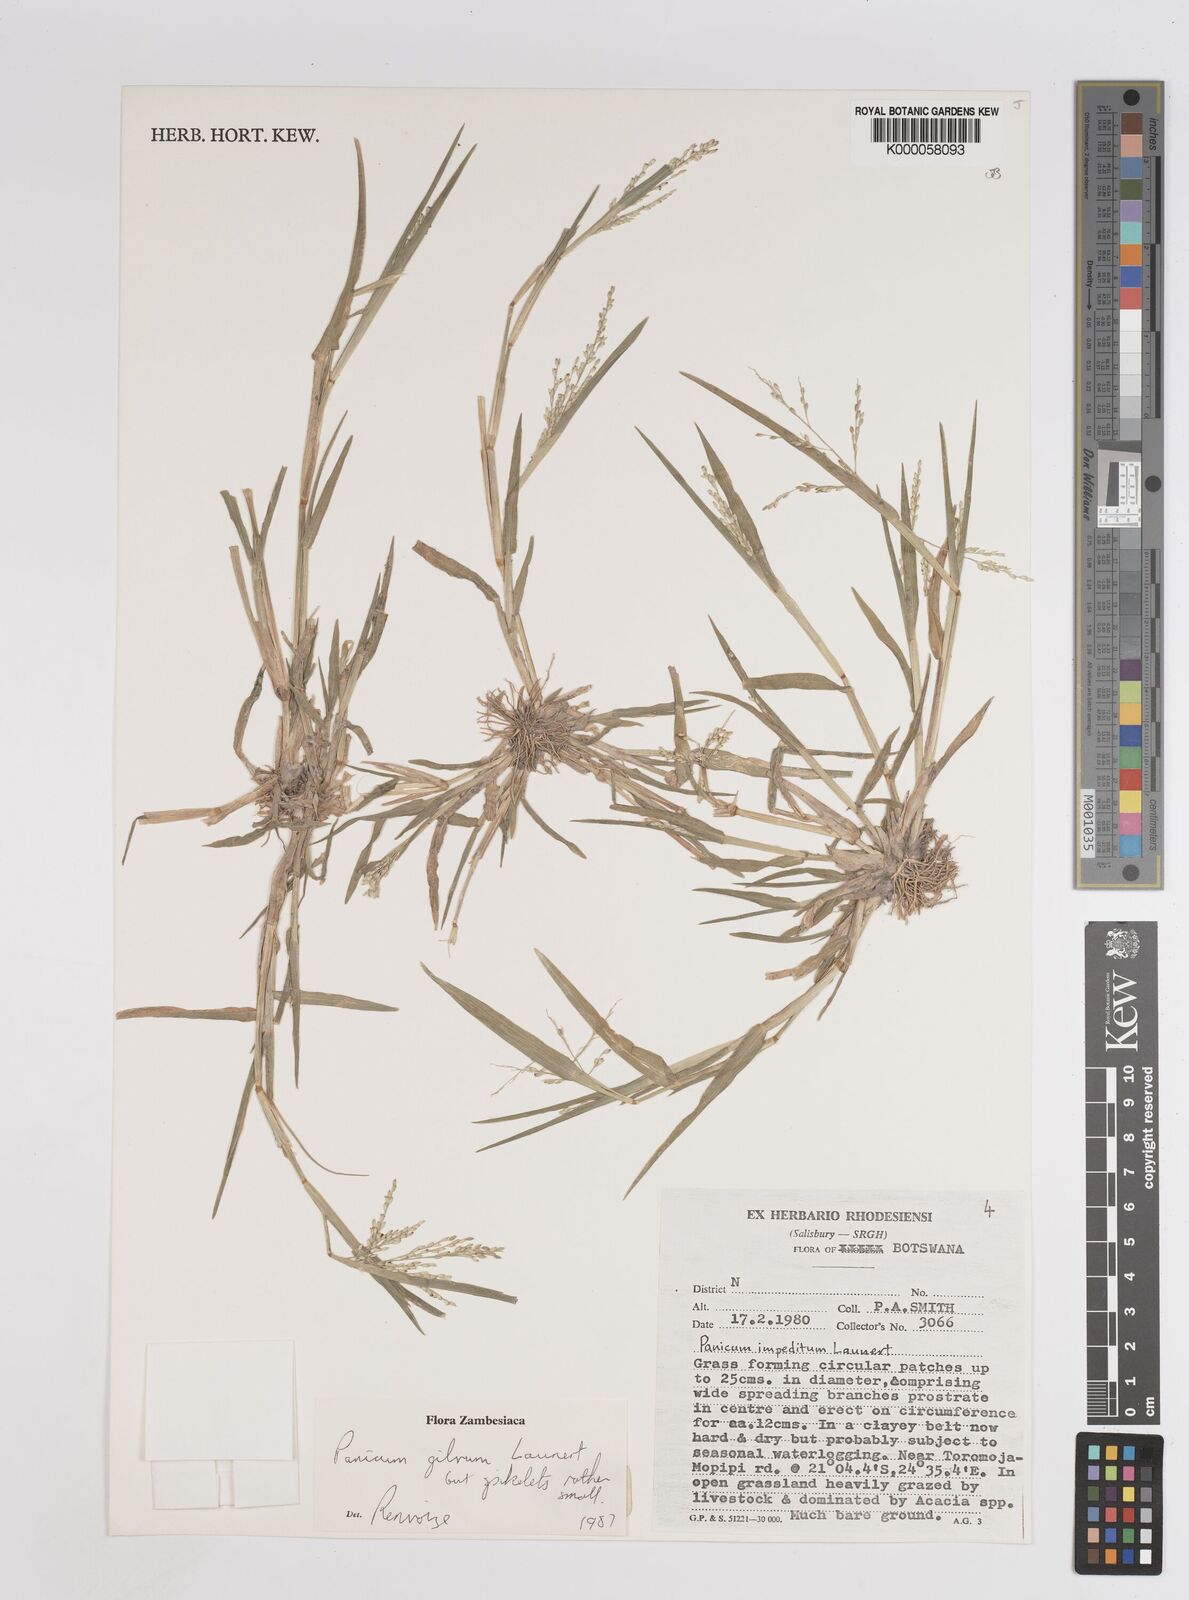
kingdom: Plantae
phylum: Tracheophyta
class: Liliopsida
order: Poales
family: Poaceae
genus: Panicum
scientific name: Panicum gilvum
